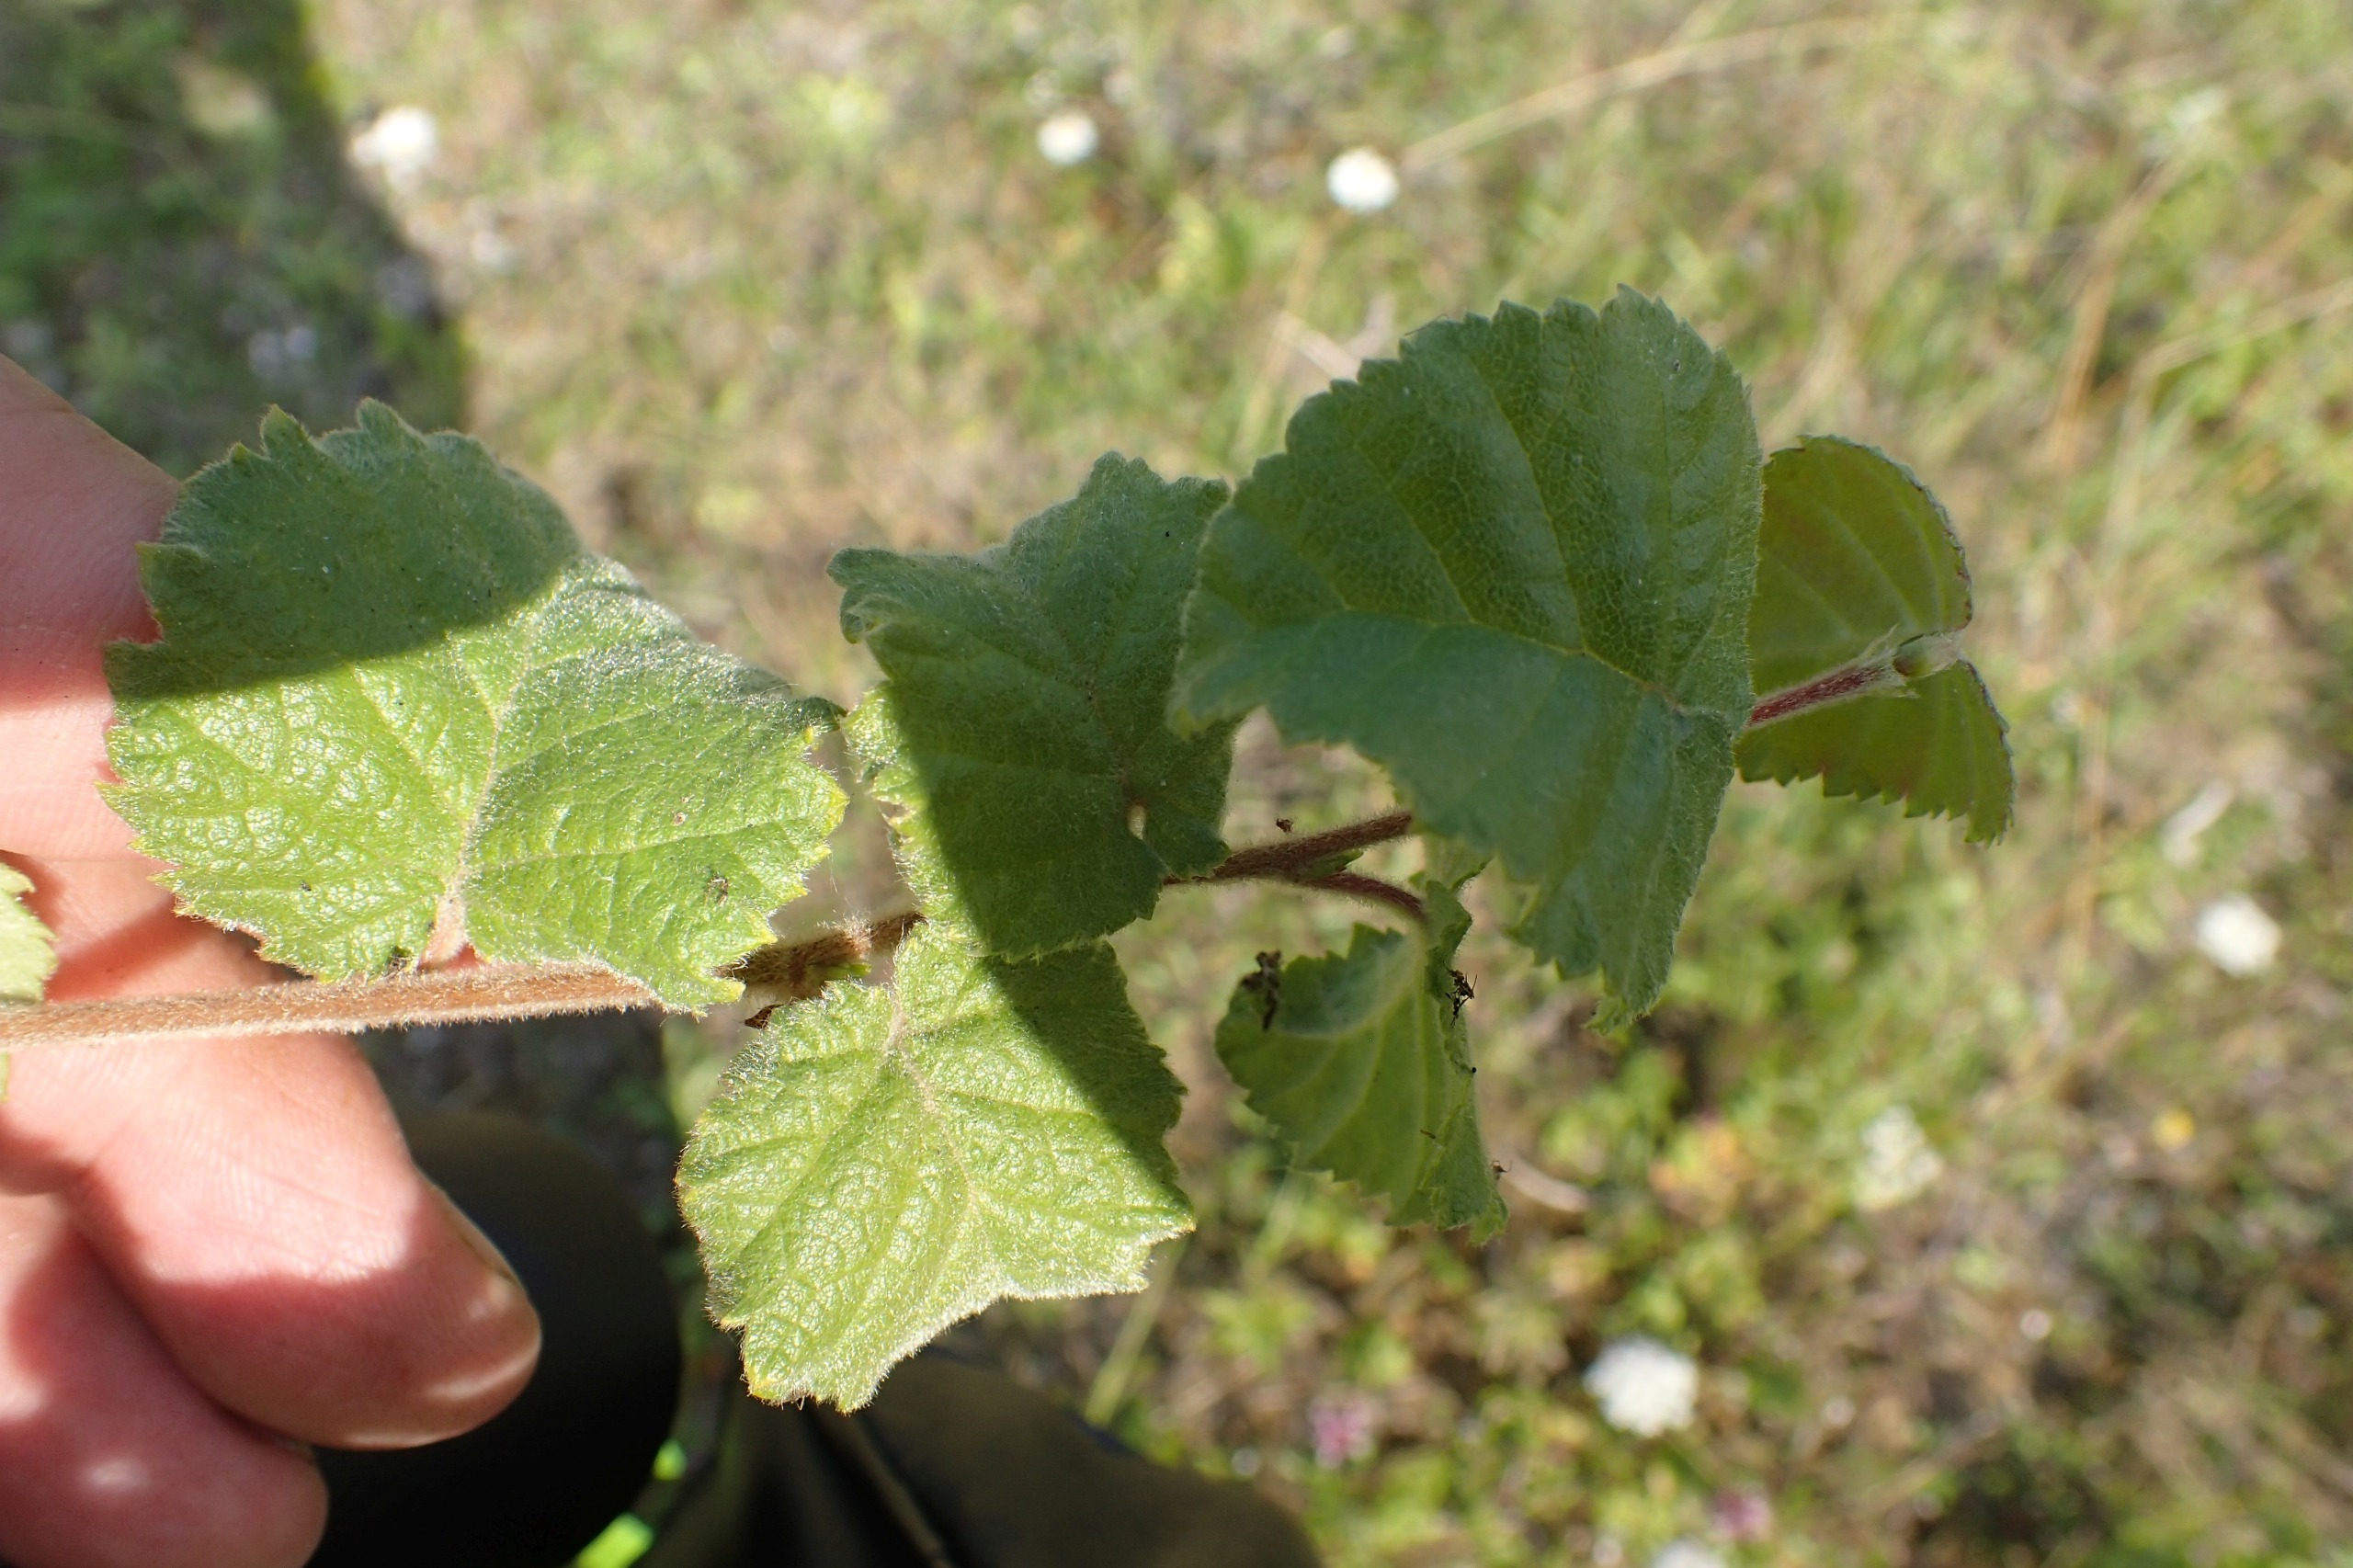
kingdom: Plantae
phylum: Tracheophyta
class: Magnoliopsida
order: Fagales
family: Betulaceae
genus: Betula
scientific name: Betula pubescens
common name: Dun-birk
